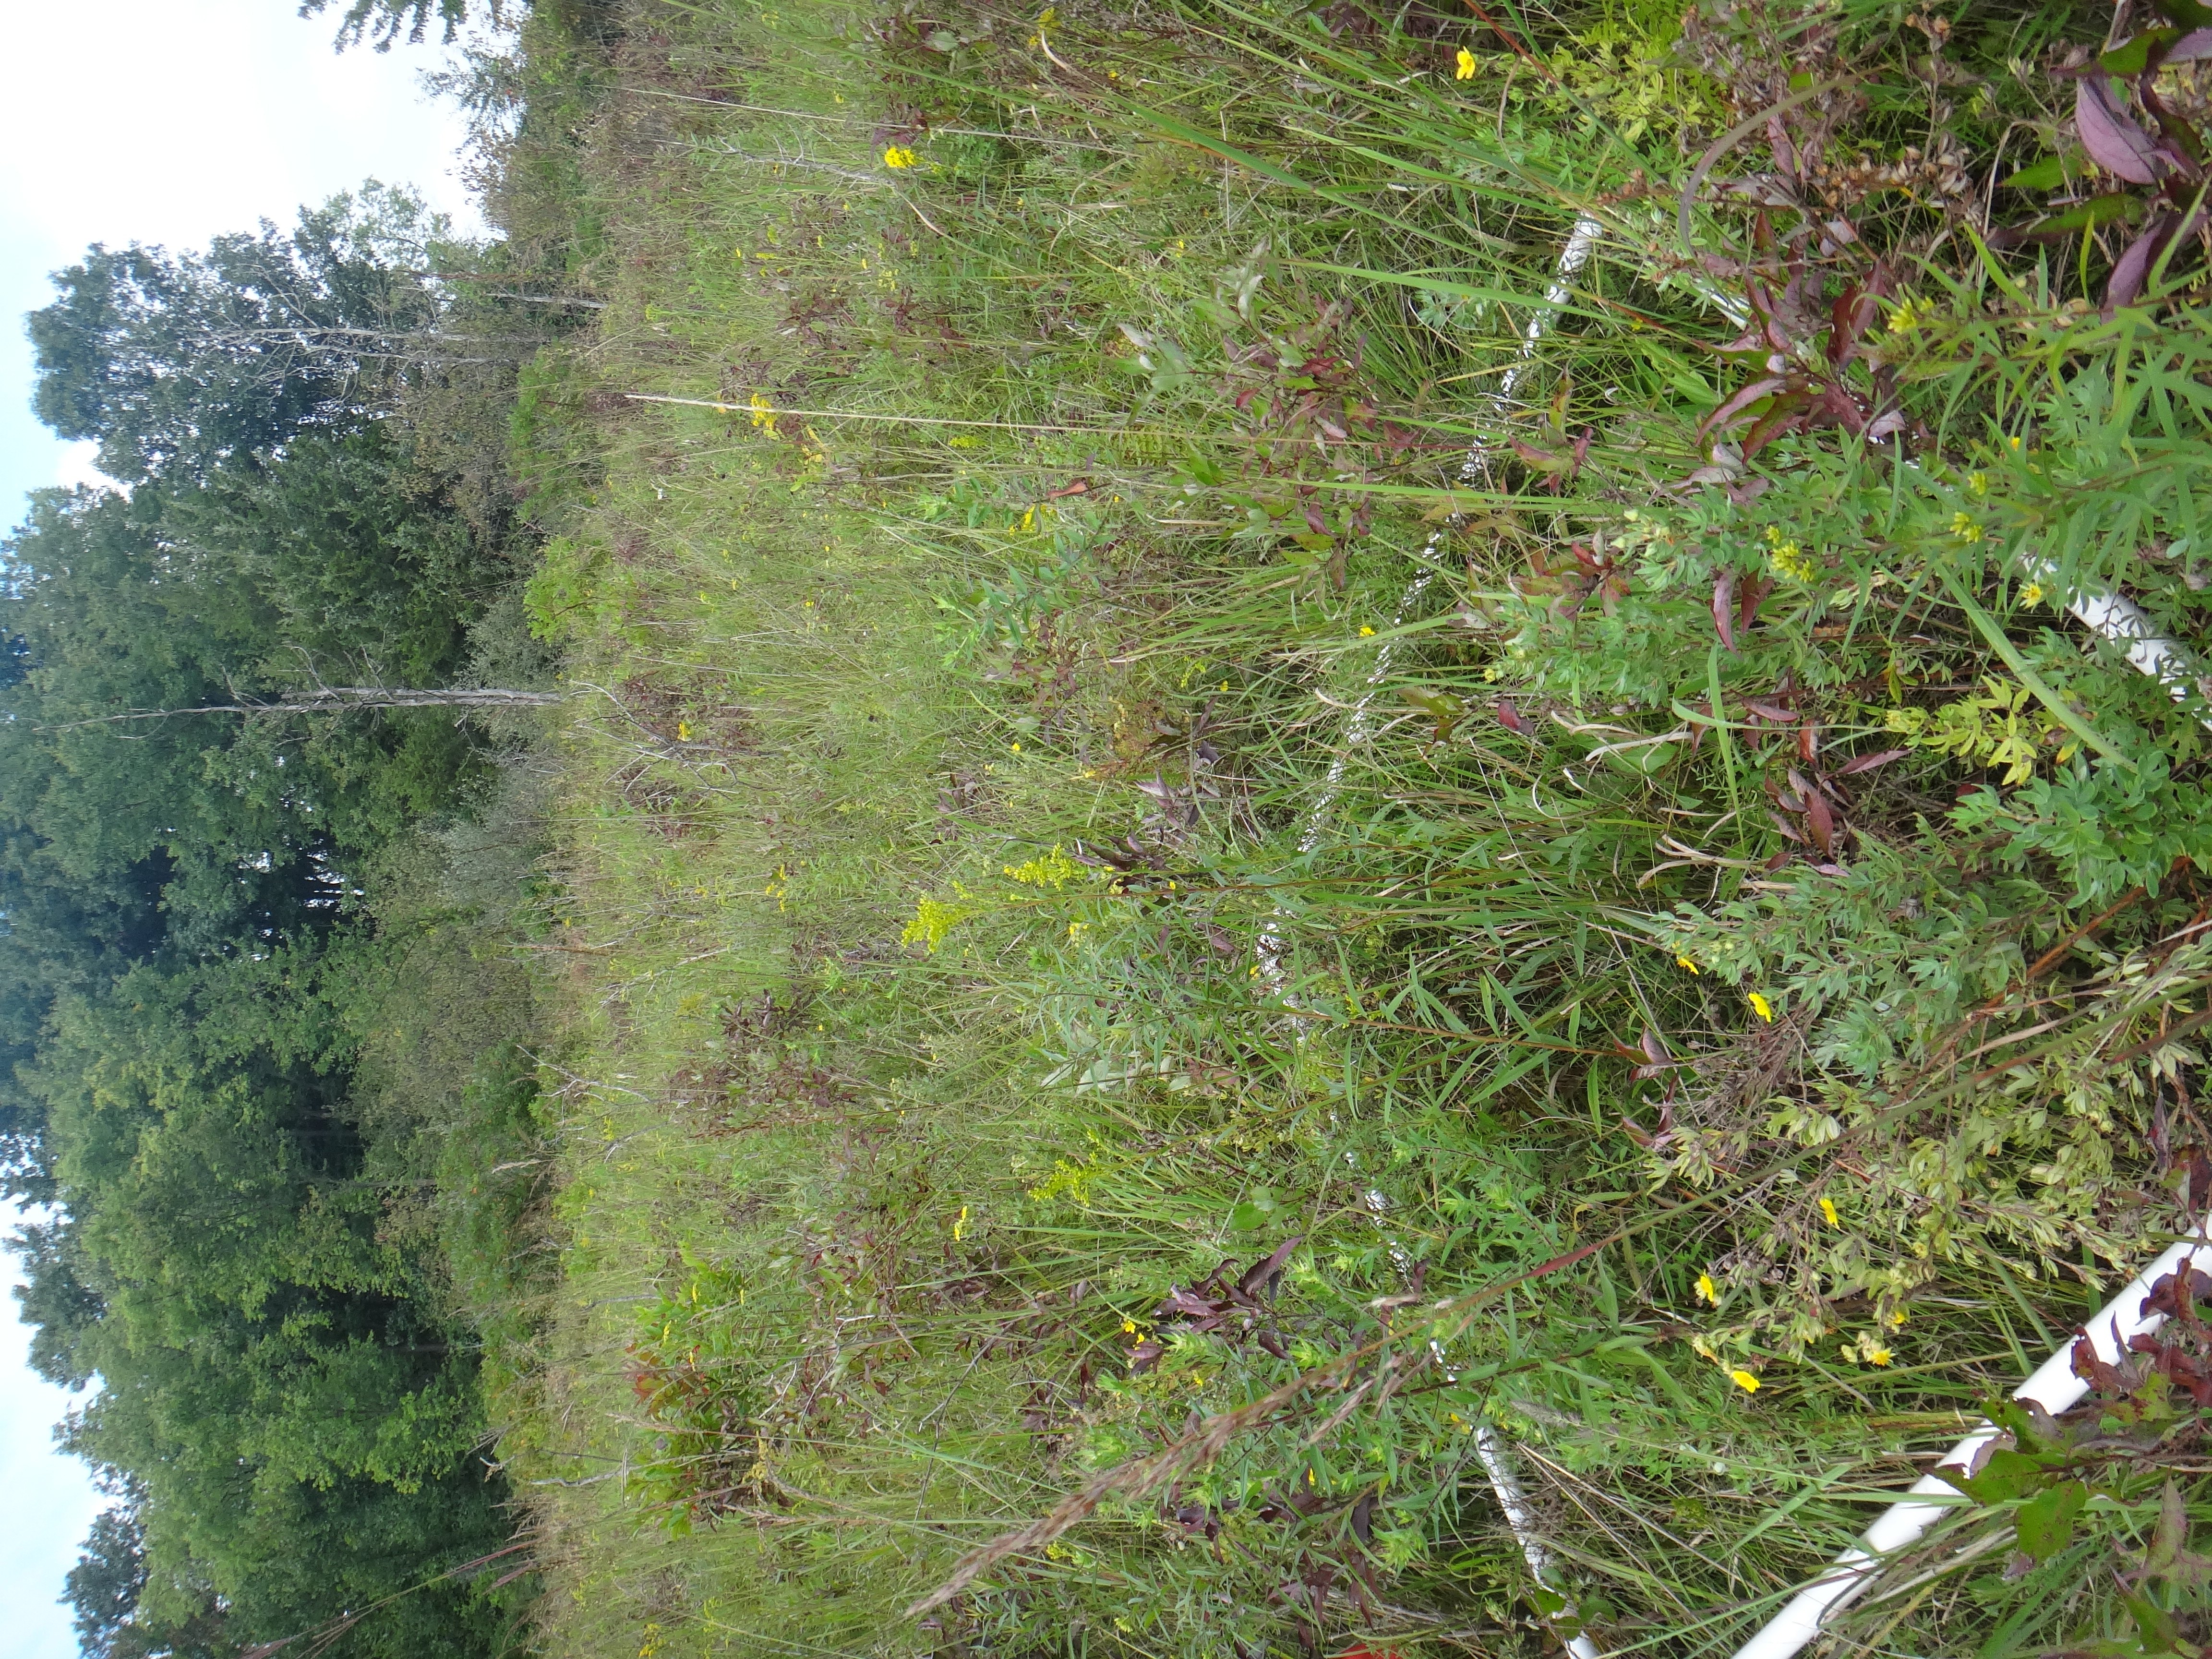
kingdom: Plantae
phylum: Tracheophyta
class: Liliopsida
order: Poales
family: Cyperaceae
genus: Carex
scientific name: Carex sterilis
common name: Dioecious sedge
